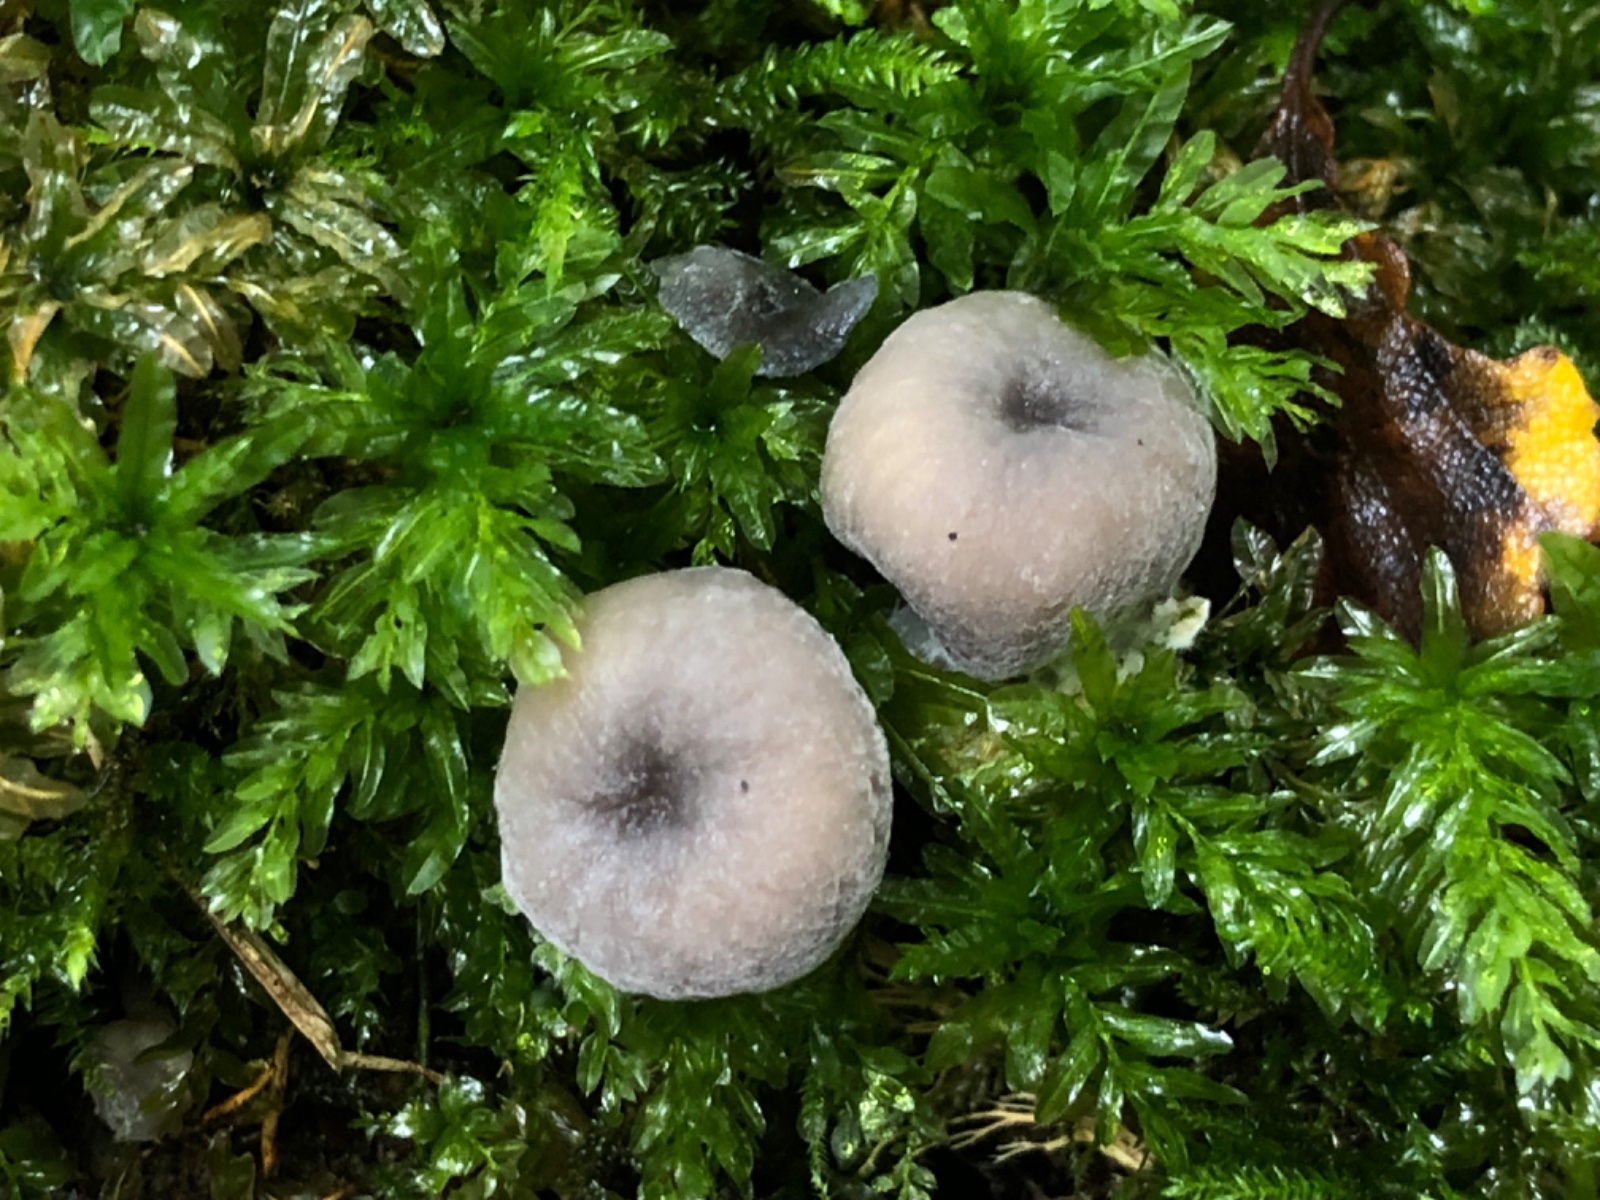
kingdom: Fungi
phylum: Basidiomycota
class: Agaricomycetes
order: Agaricales
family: Entolomataceae
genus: Entoloma
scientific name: Entoloma
